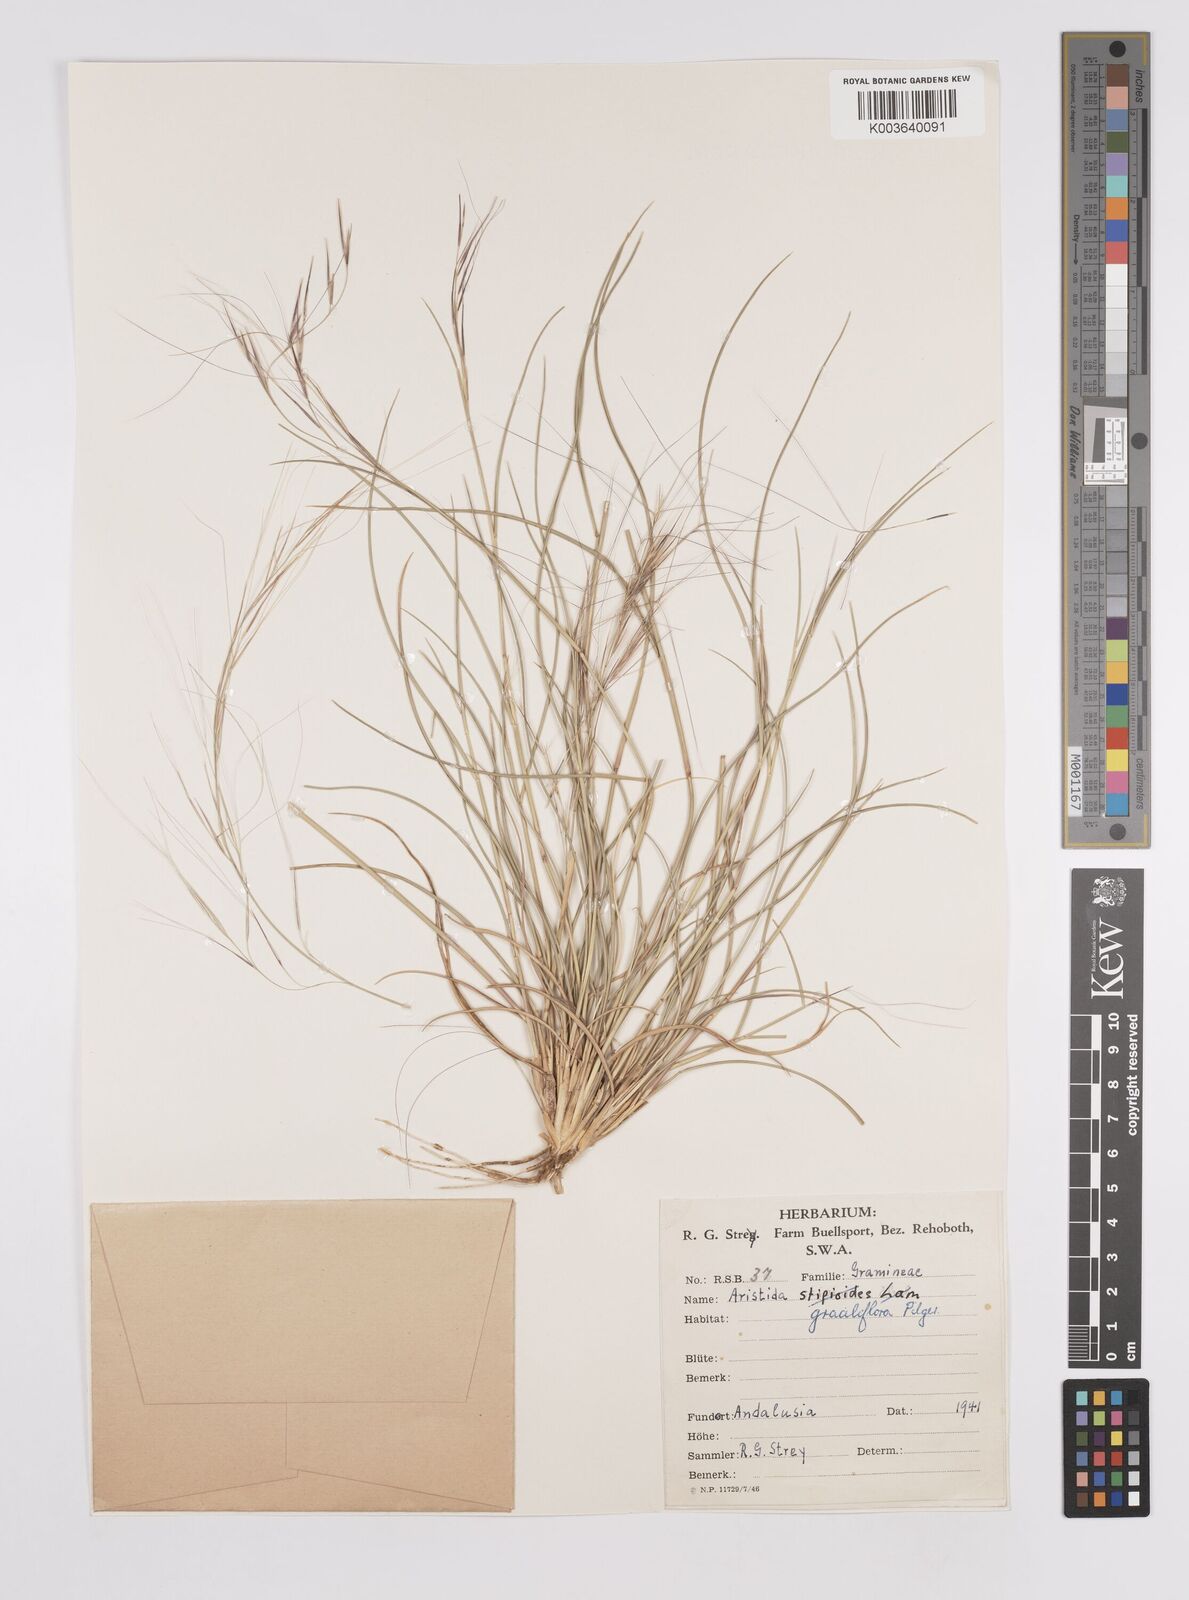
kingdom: Plantae
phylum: Tracheophyta
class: Liliopsida
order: Poales
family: Poaceae
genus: Aristida
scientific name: Aristida stipitata
